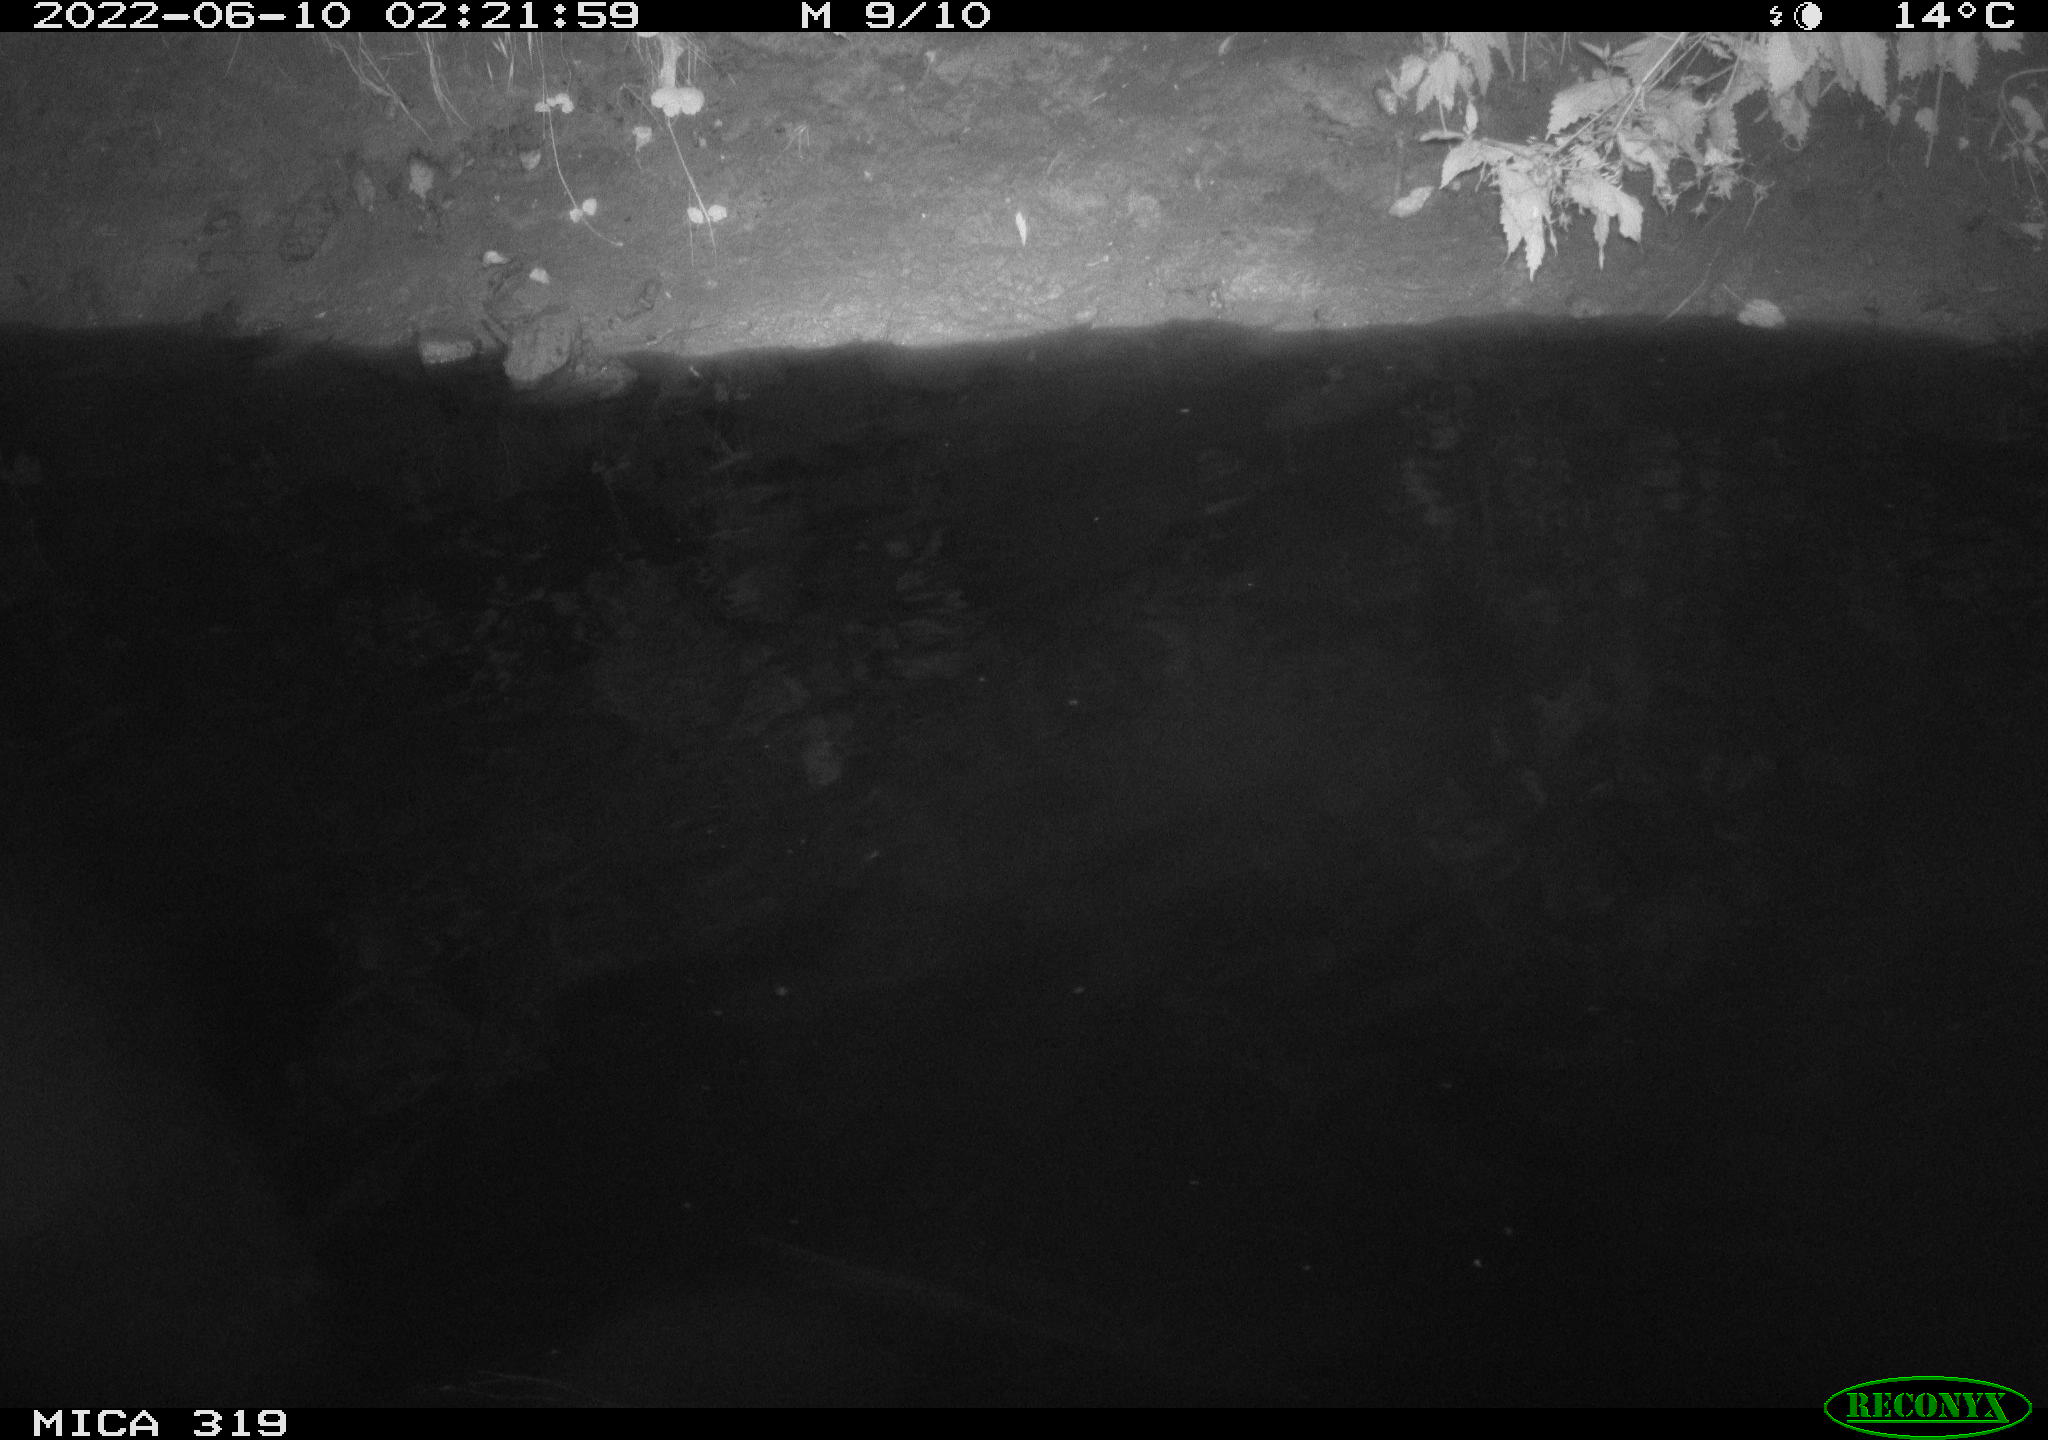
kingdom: Animalia
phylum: Chordata
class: Aves
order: Anseriformes
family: Anatidae
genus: Anas
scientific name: Anas
